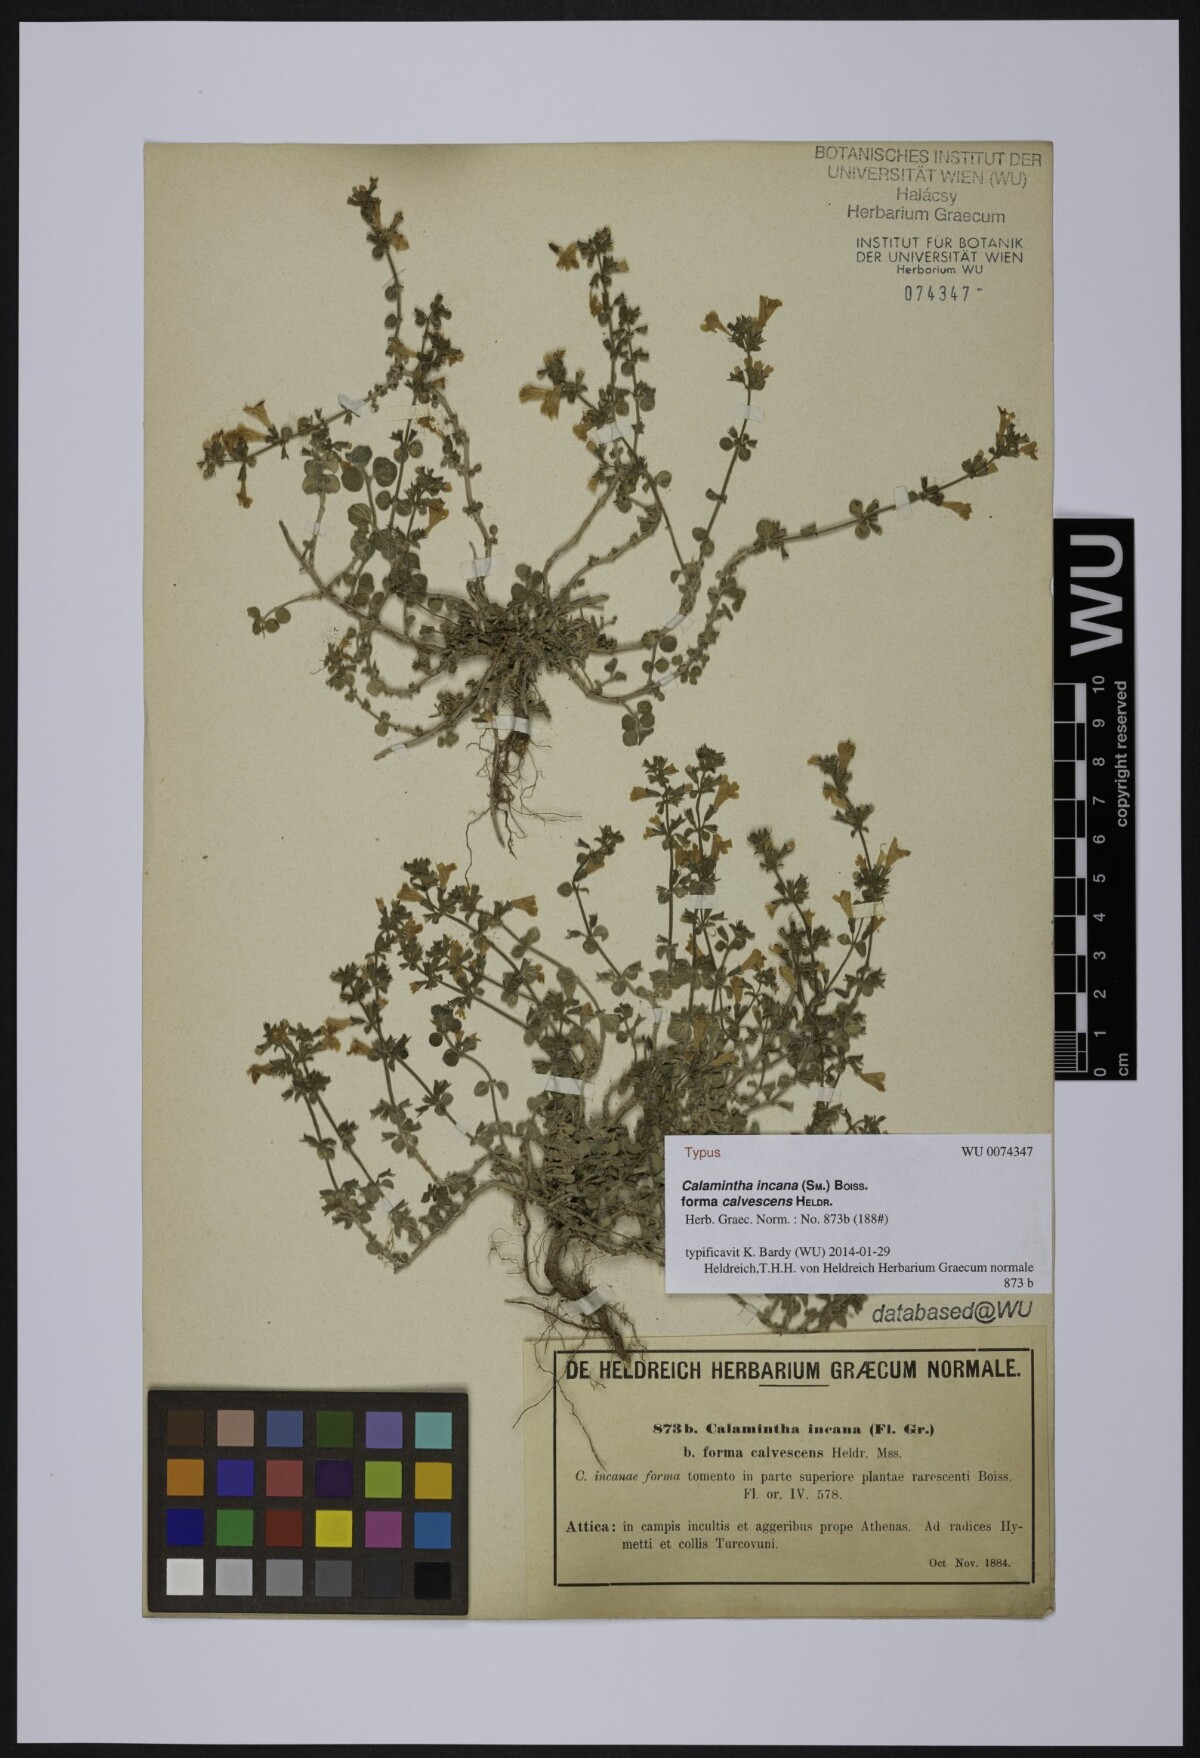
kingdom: Plantae
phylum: Tracheophyta
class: Magnoliopsida
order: Lamiales
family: Lamiaceae
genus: Clinopodium
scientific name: Clinopodium brevifolium
